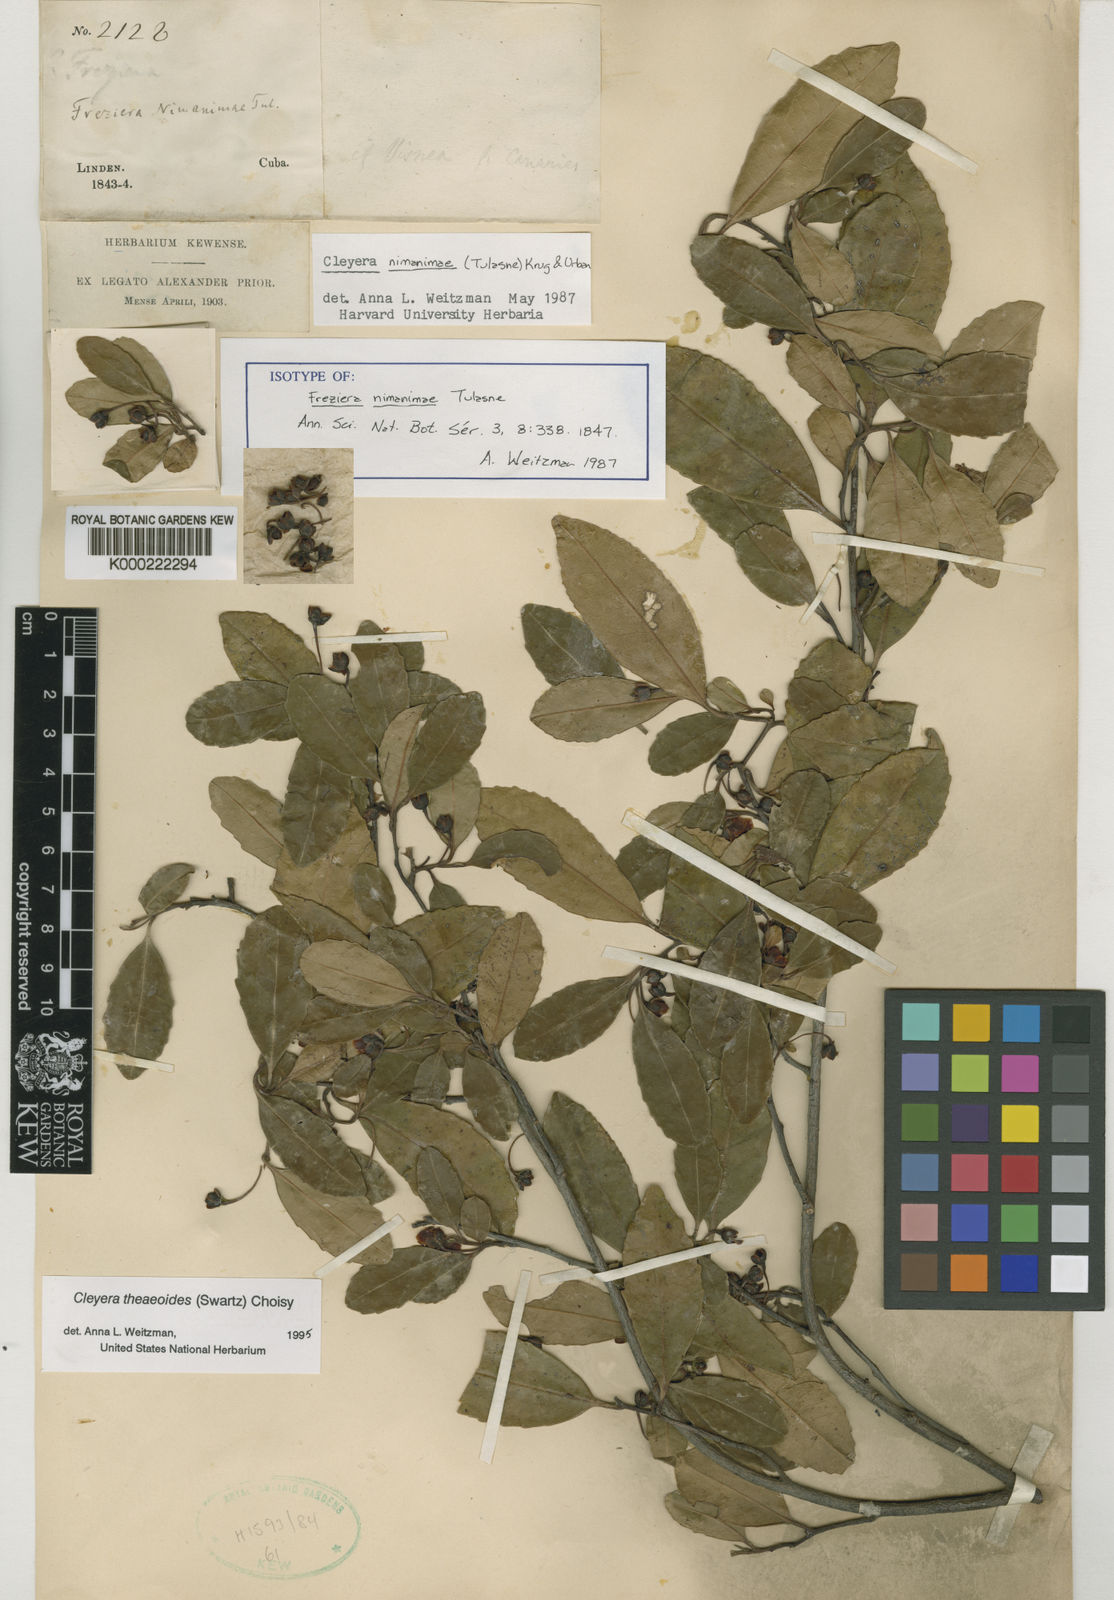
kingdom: Plantae
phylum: Tracheophyta
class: Magnoliopsida
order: Ericales
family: Pentaphylacaceae
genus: Cleyera
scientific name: Cleyera nimanimae
